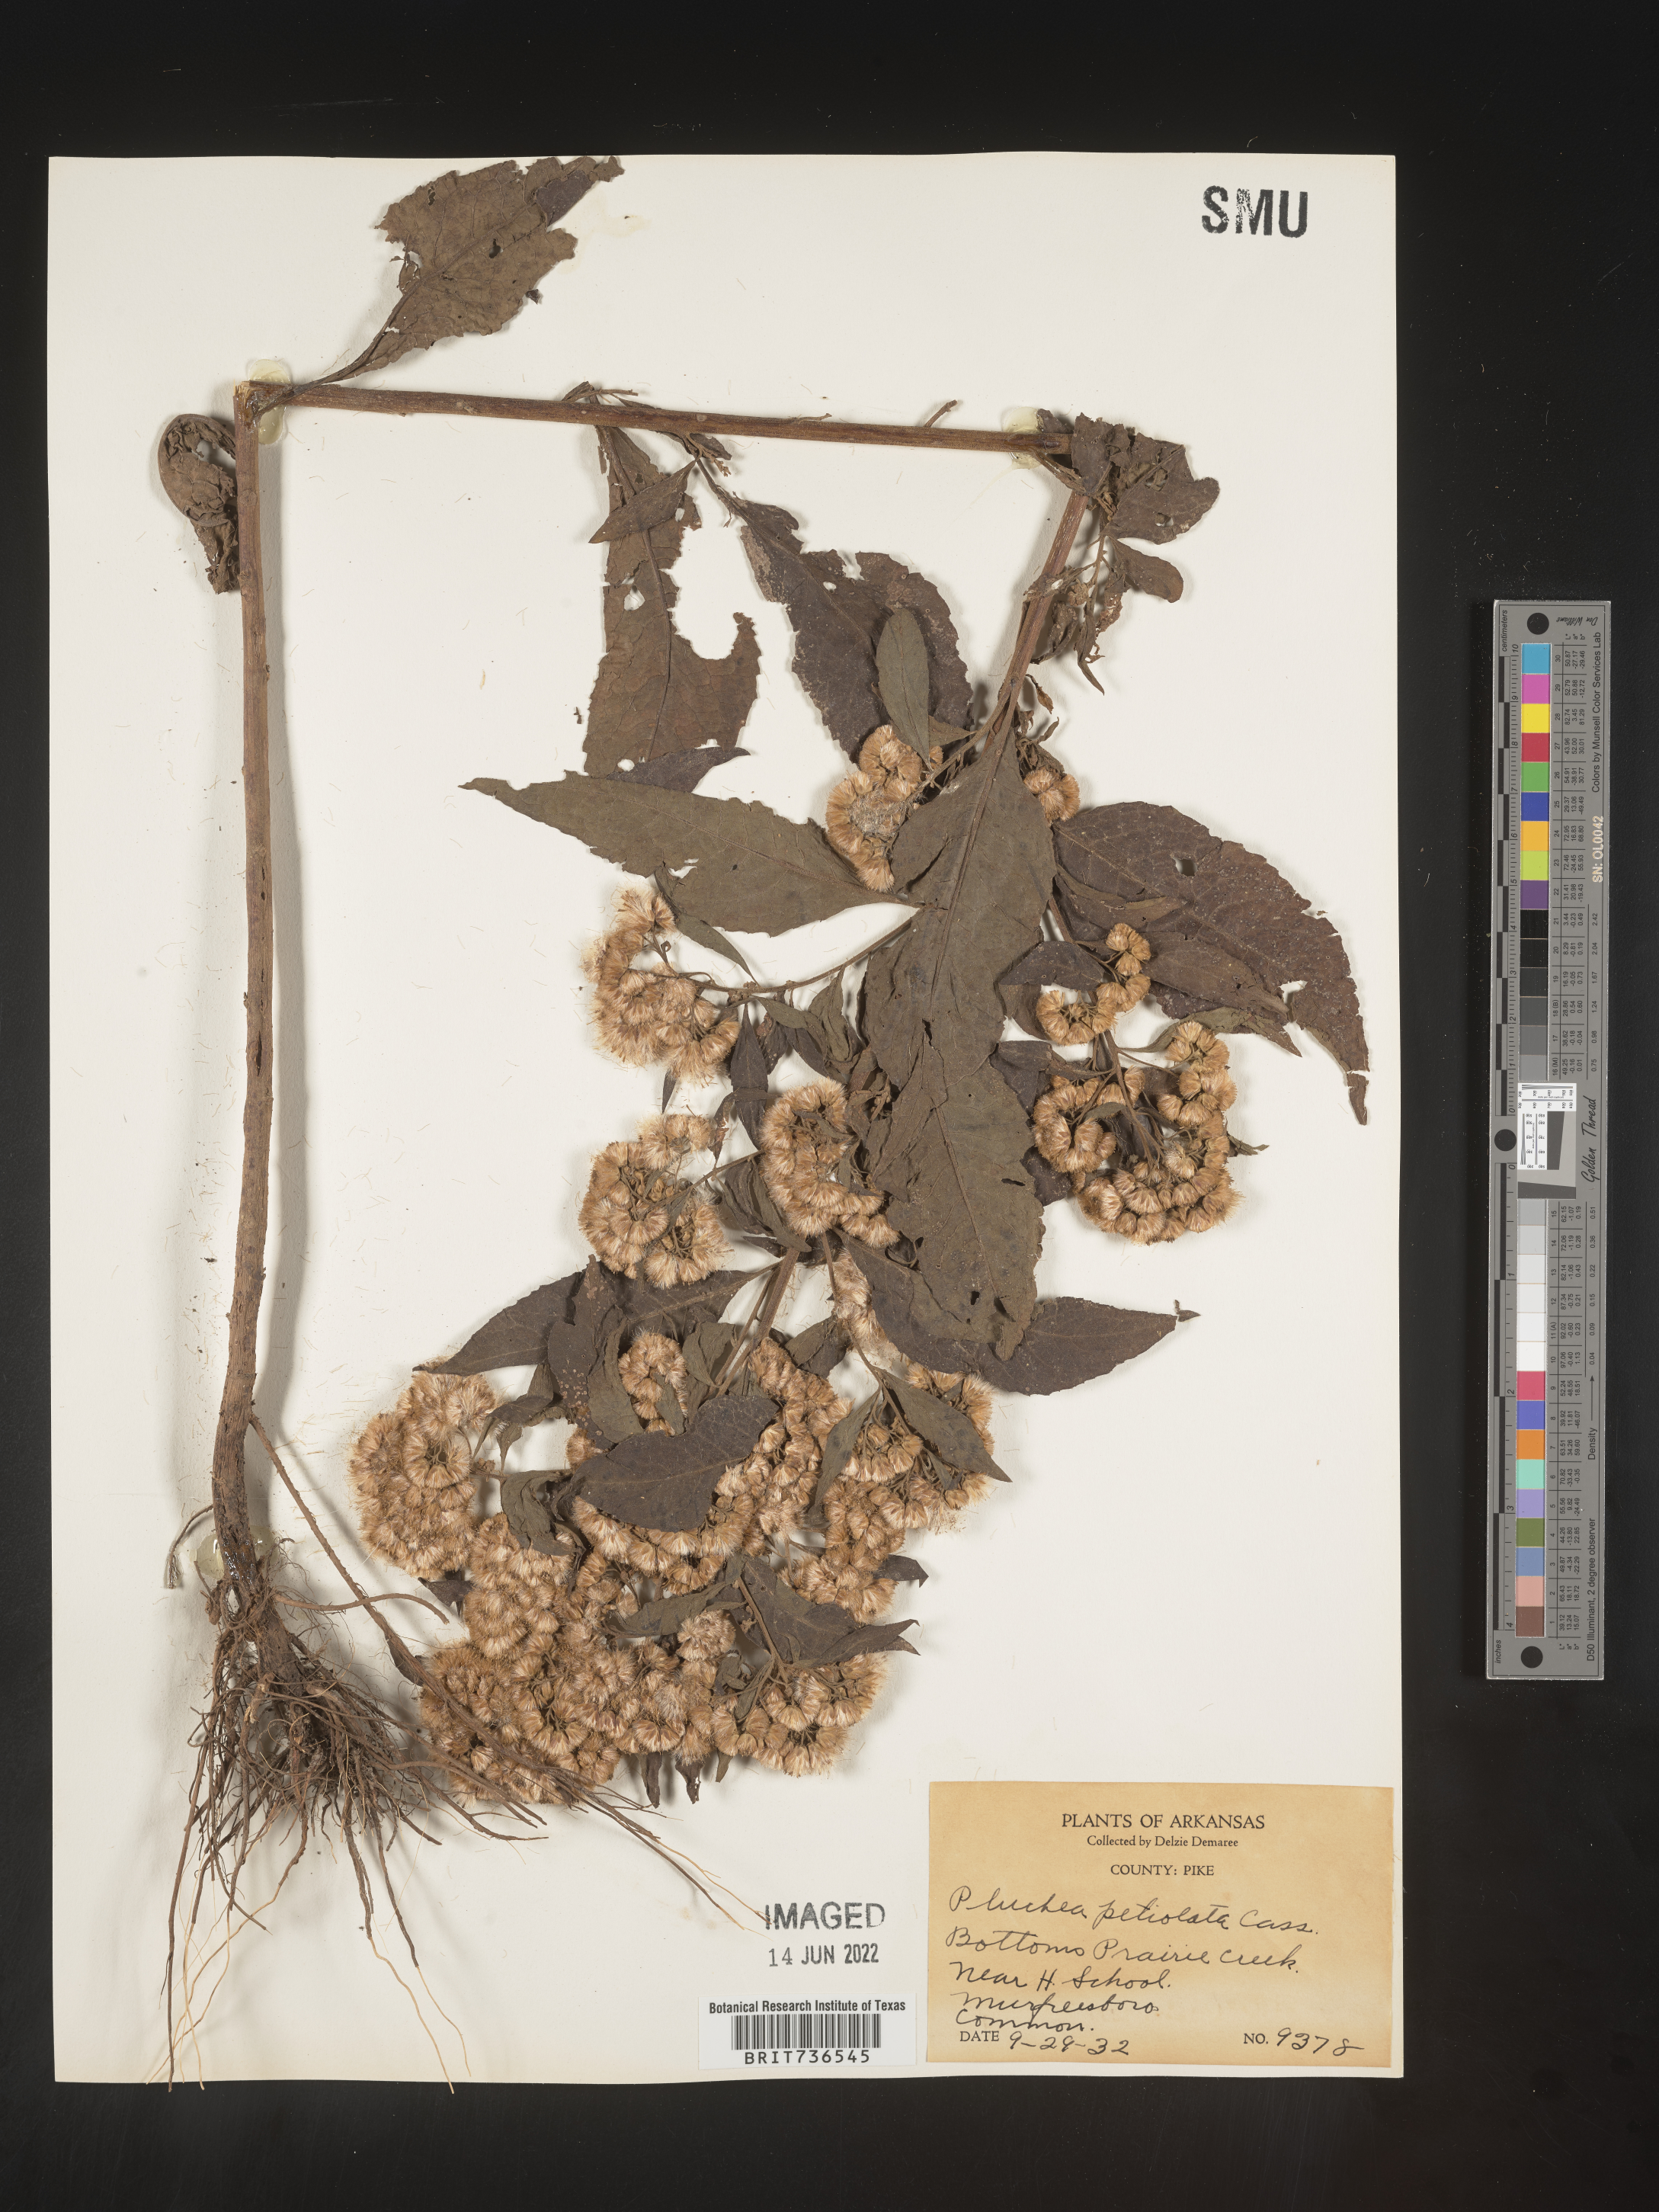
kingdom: Plantae
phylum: Tracheophyta
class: Magnoliopsida
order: Asterales
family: Asteraceae
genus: Pluchea
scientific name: Pluchea camphorata
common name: Camphor pluchea
